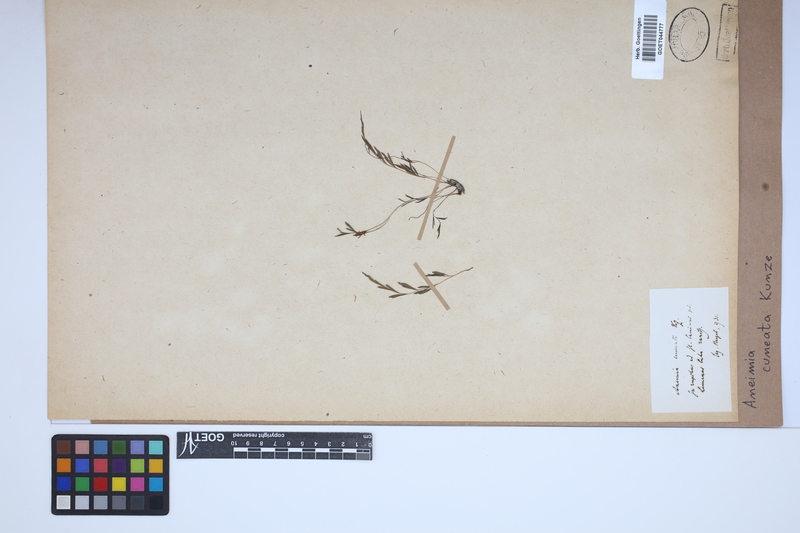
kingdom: Plantae
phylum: Tracheophyta
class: Polypodiopsida
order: Schizaeales
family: Anemiaceae
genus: Anemia
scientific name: Anemia cuneata
